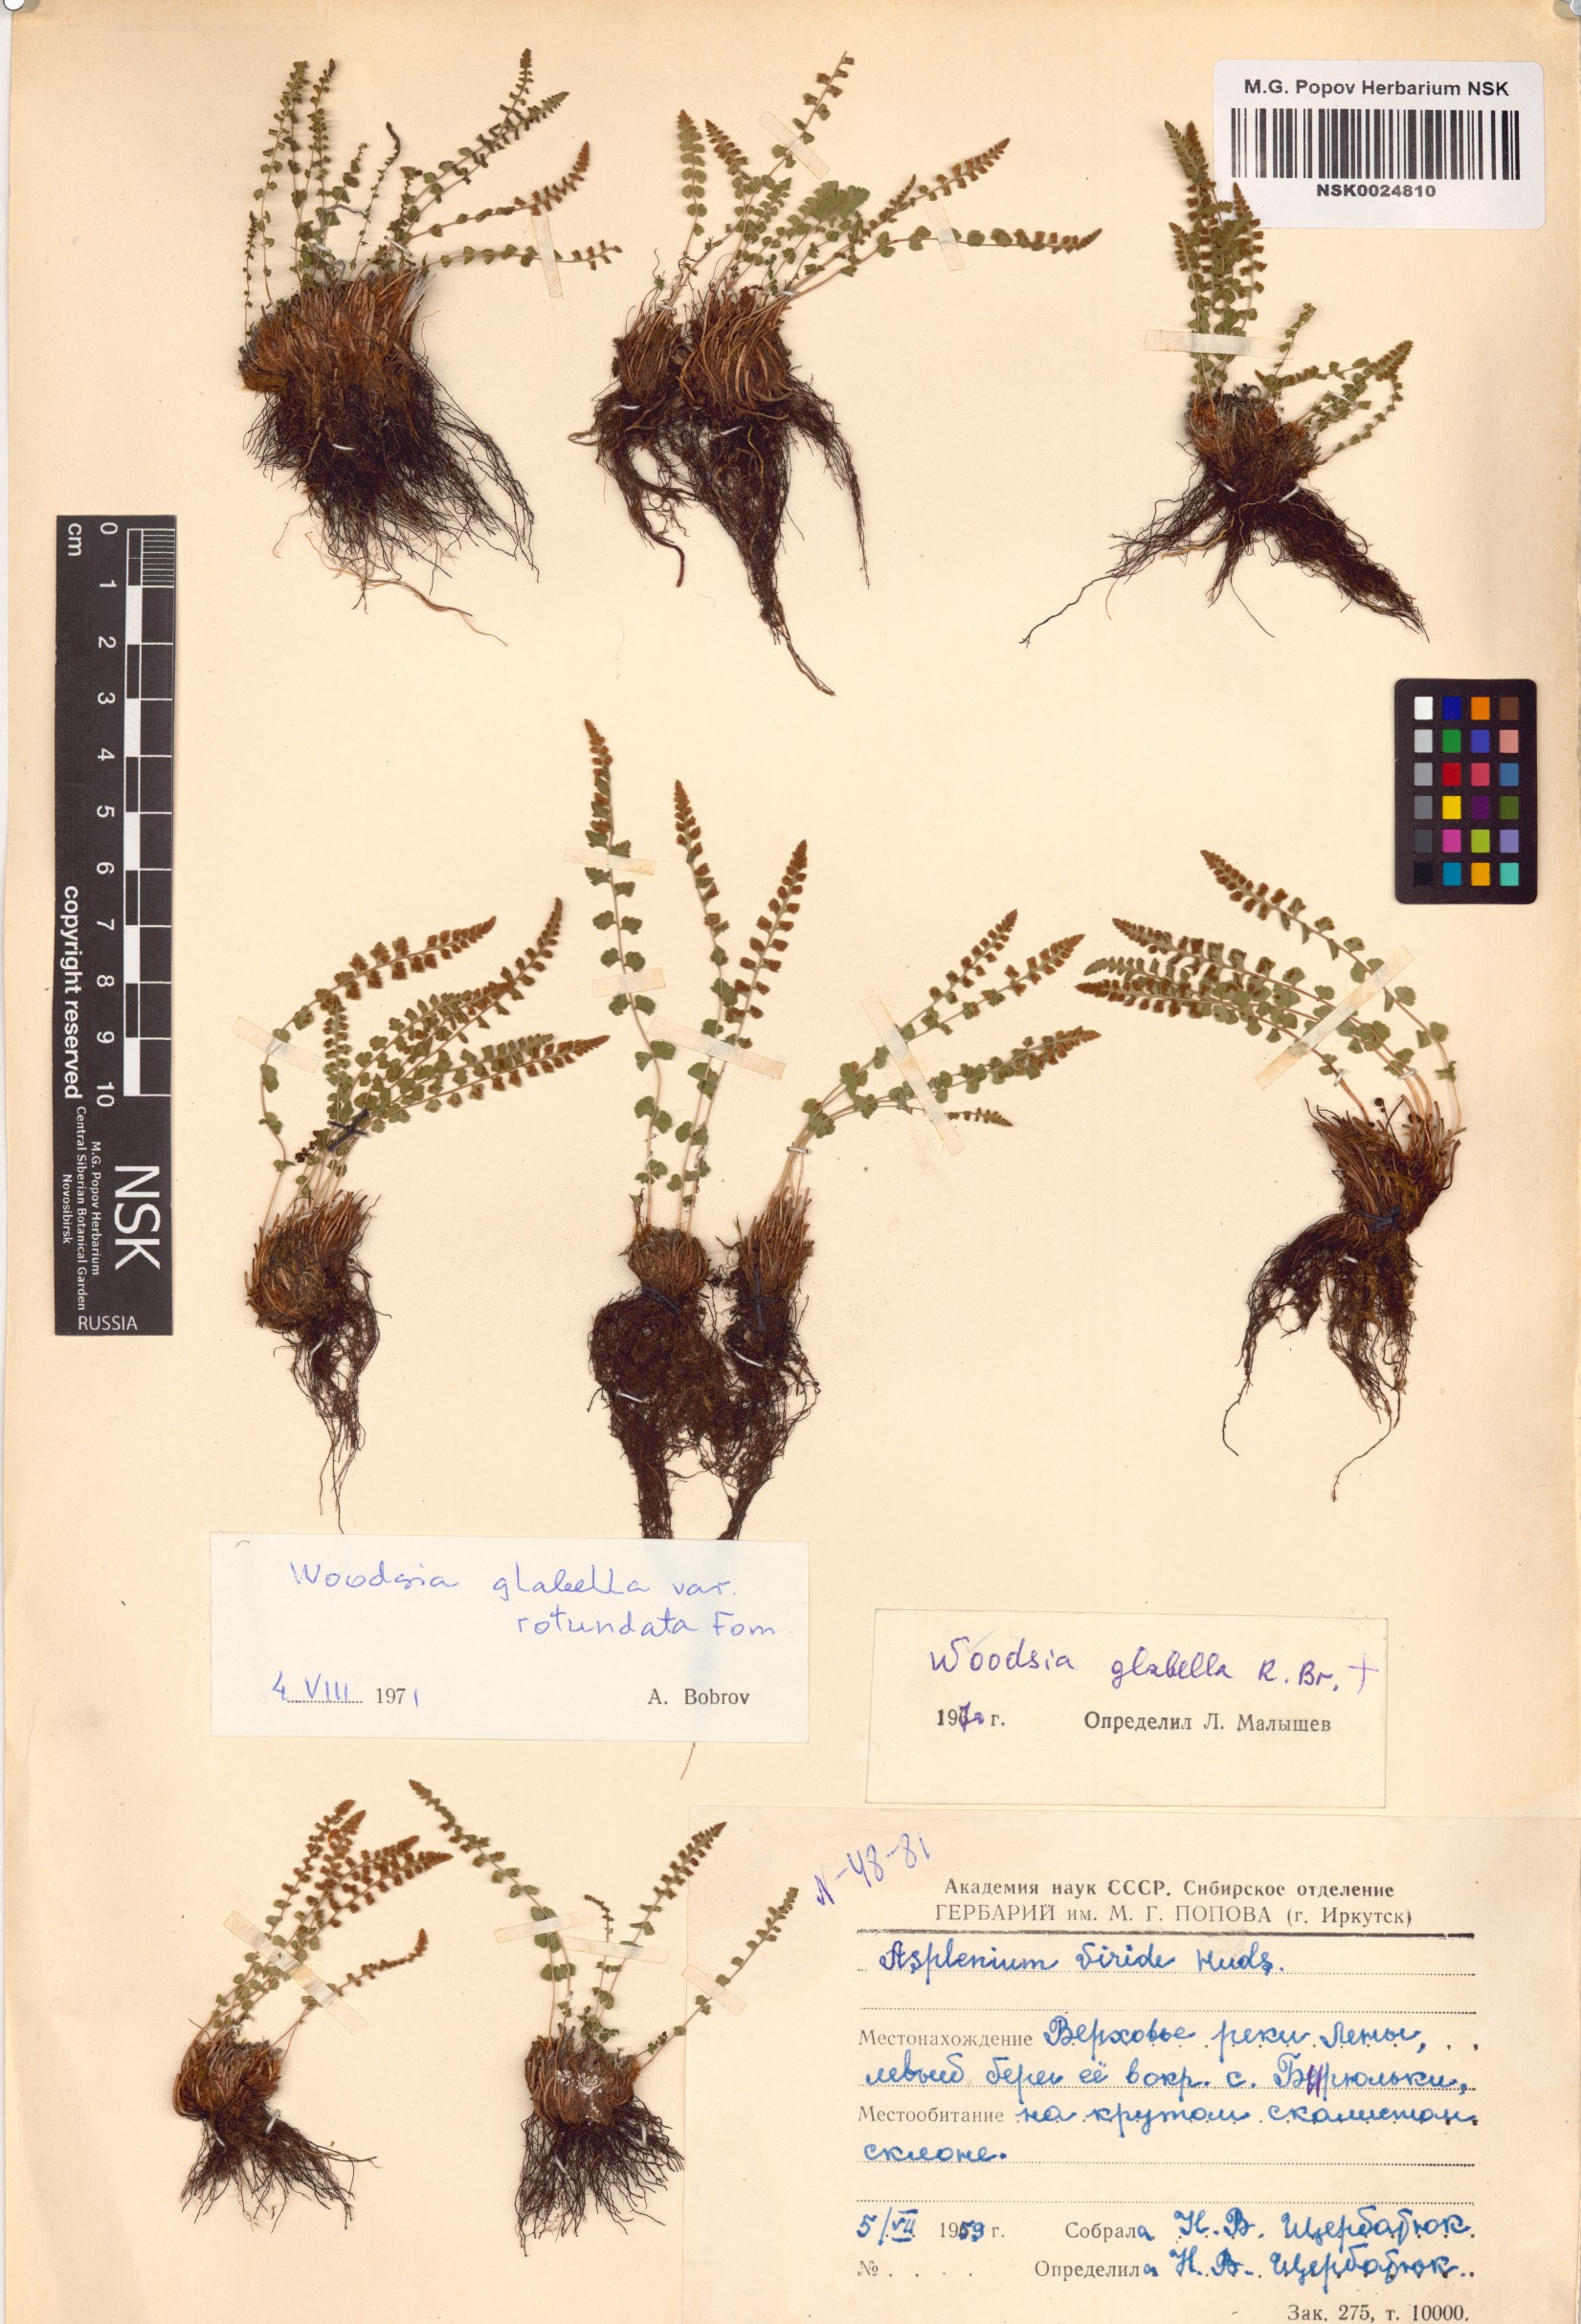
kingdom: Plantae
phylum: Tracheophyta
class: Polypodiopsida
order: Polypodiales
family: Woodsiaceae
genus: Woodsia
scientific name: Woodsia glabella
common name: Smooth woodsia
